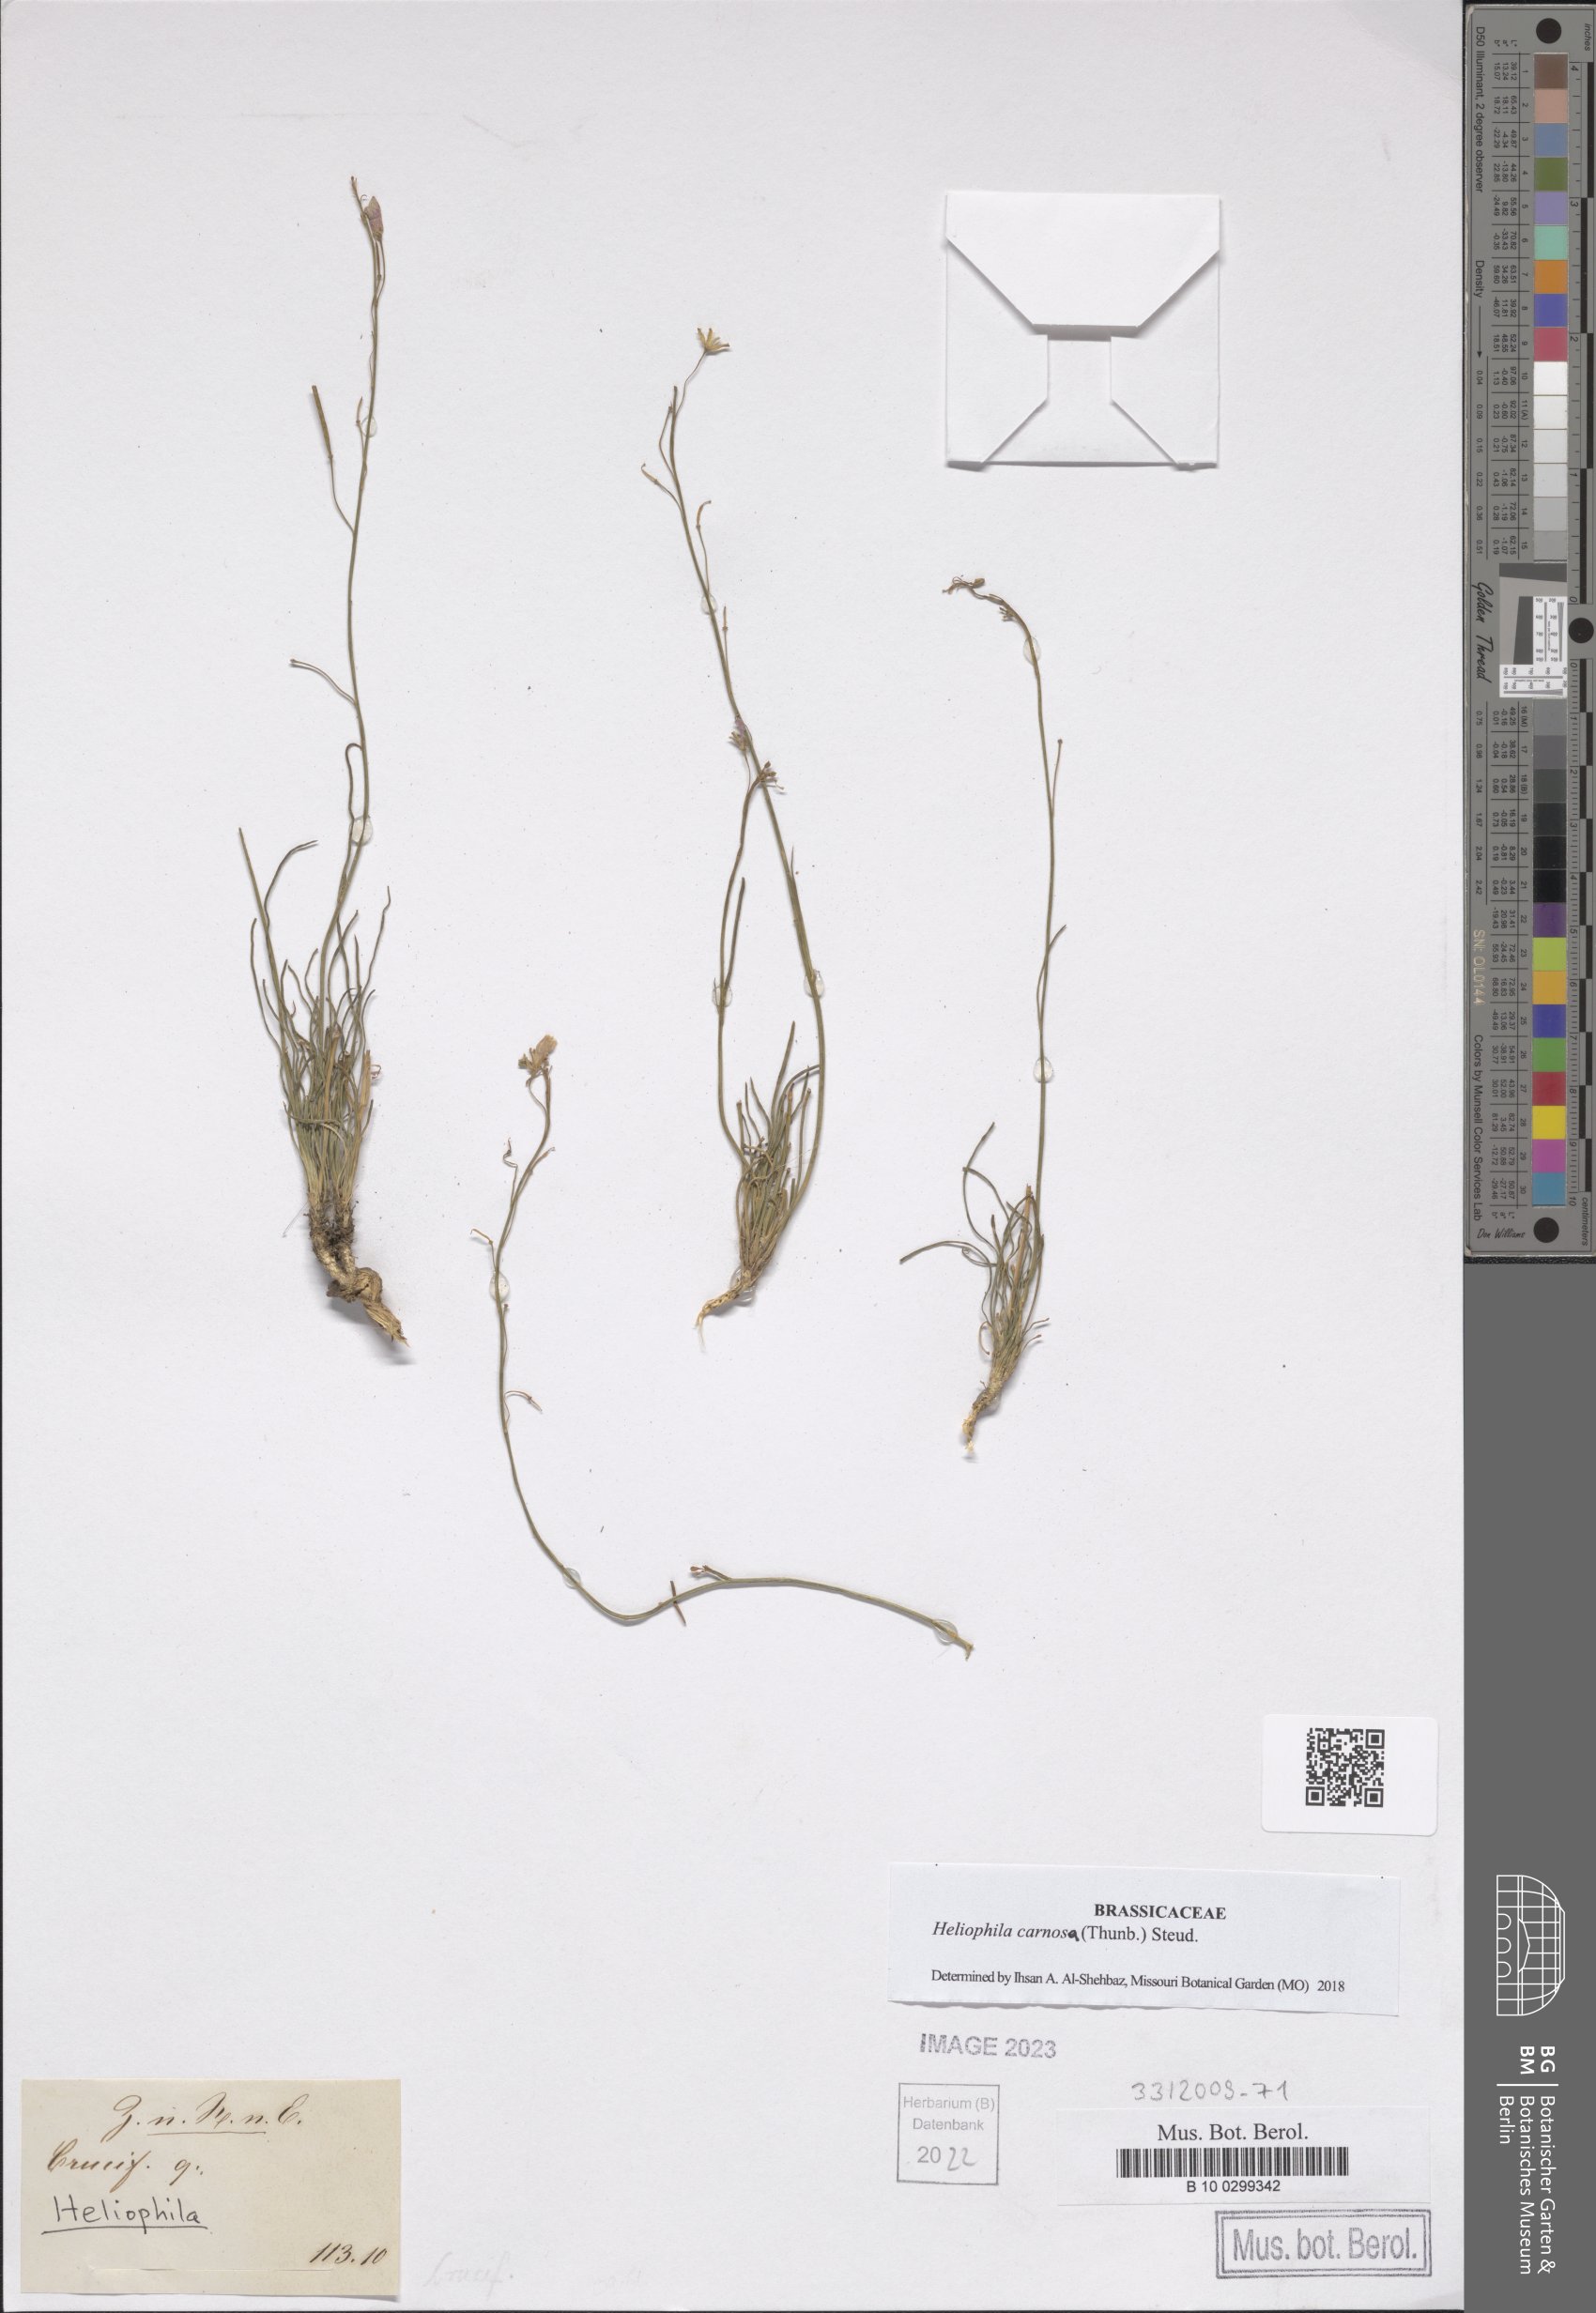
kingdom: Plantae
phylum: Tracheophyta
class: Magnoliopsida
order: Brassicales
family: Brassicaceae
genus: Heliophila
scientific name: Heliophila carnosa
